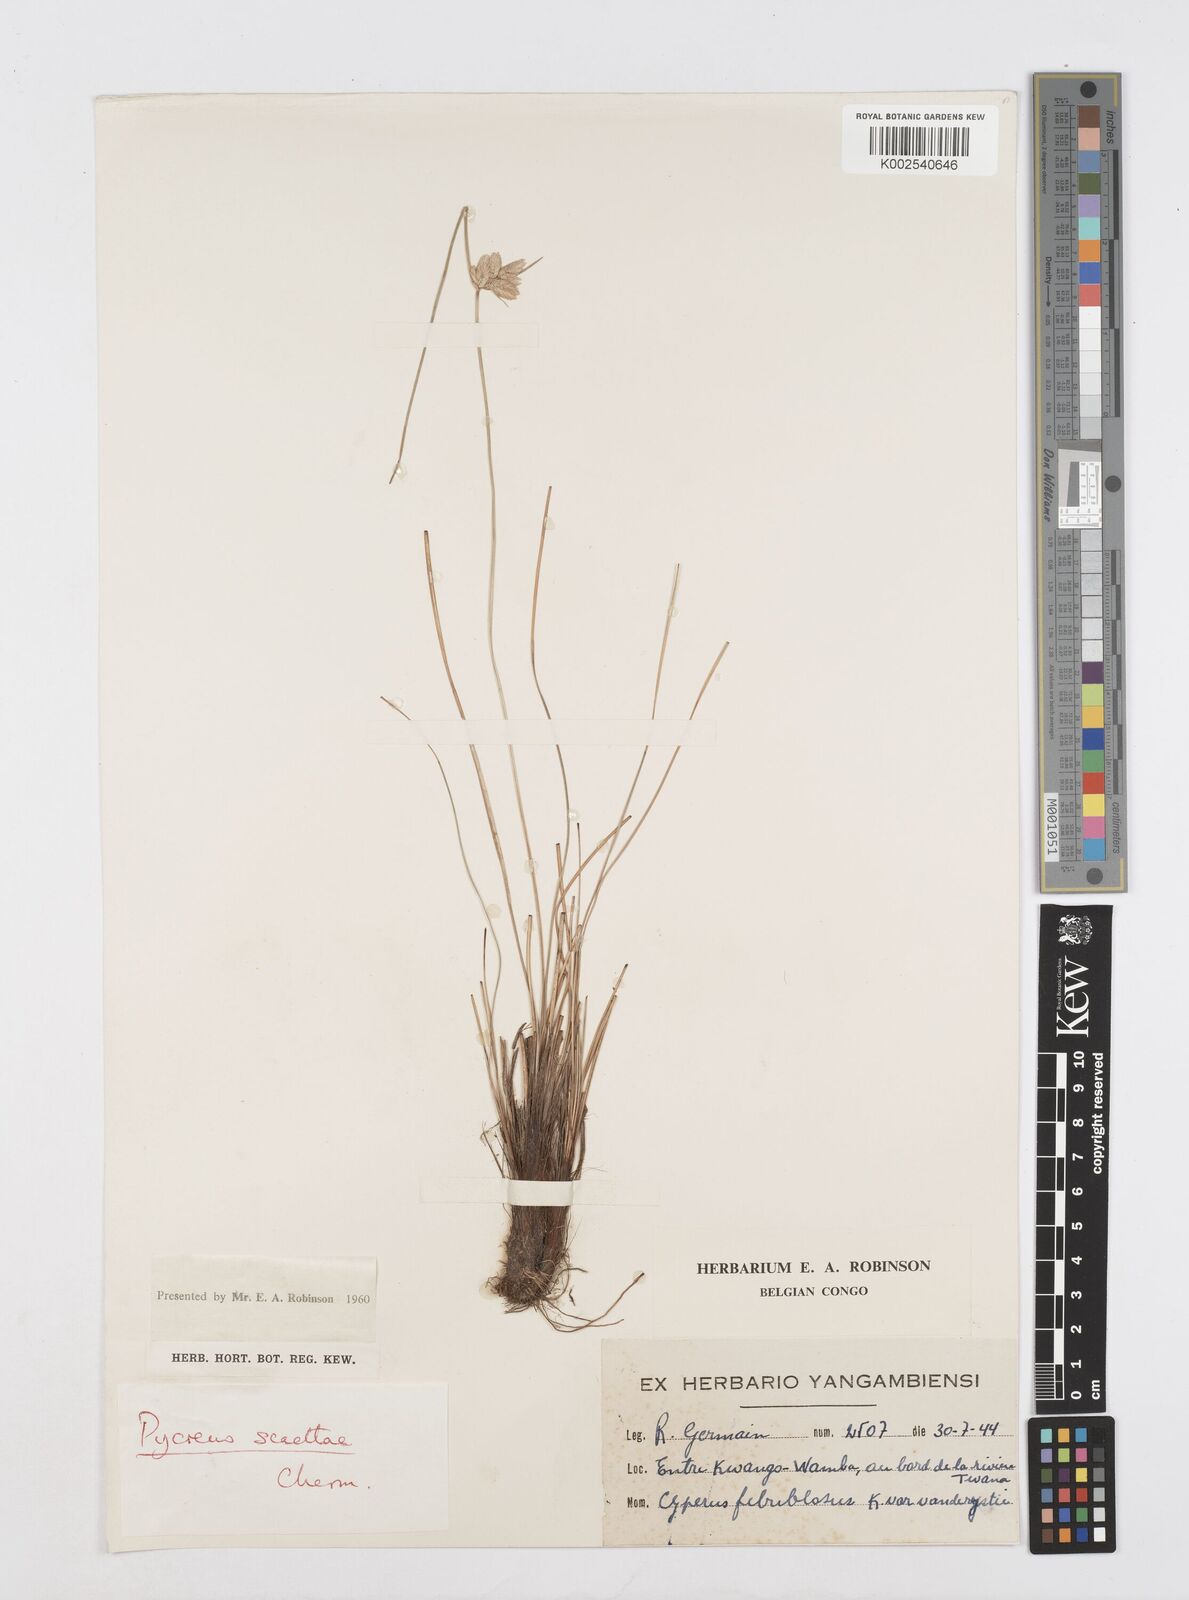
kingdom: Plantae
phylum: Tracheophyta
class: Liliopsida
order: Poales
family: Cyperaceae
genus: Cyperus
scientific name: Cyperus scaettae
